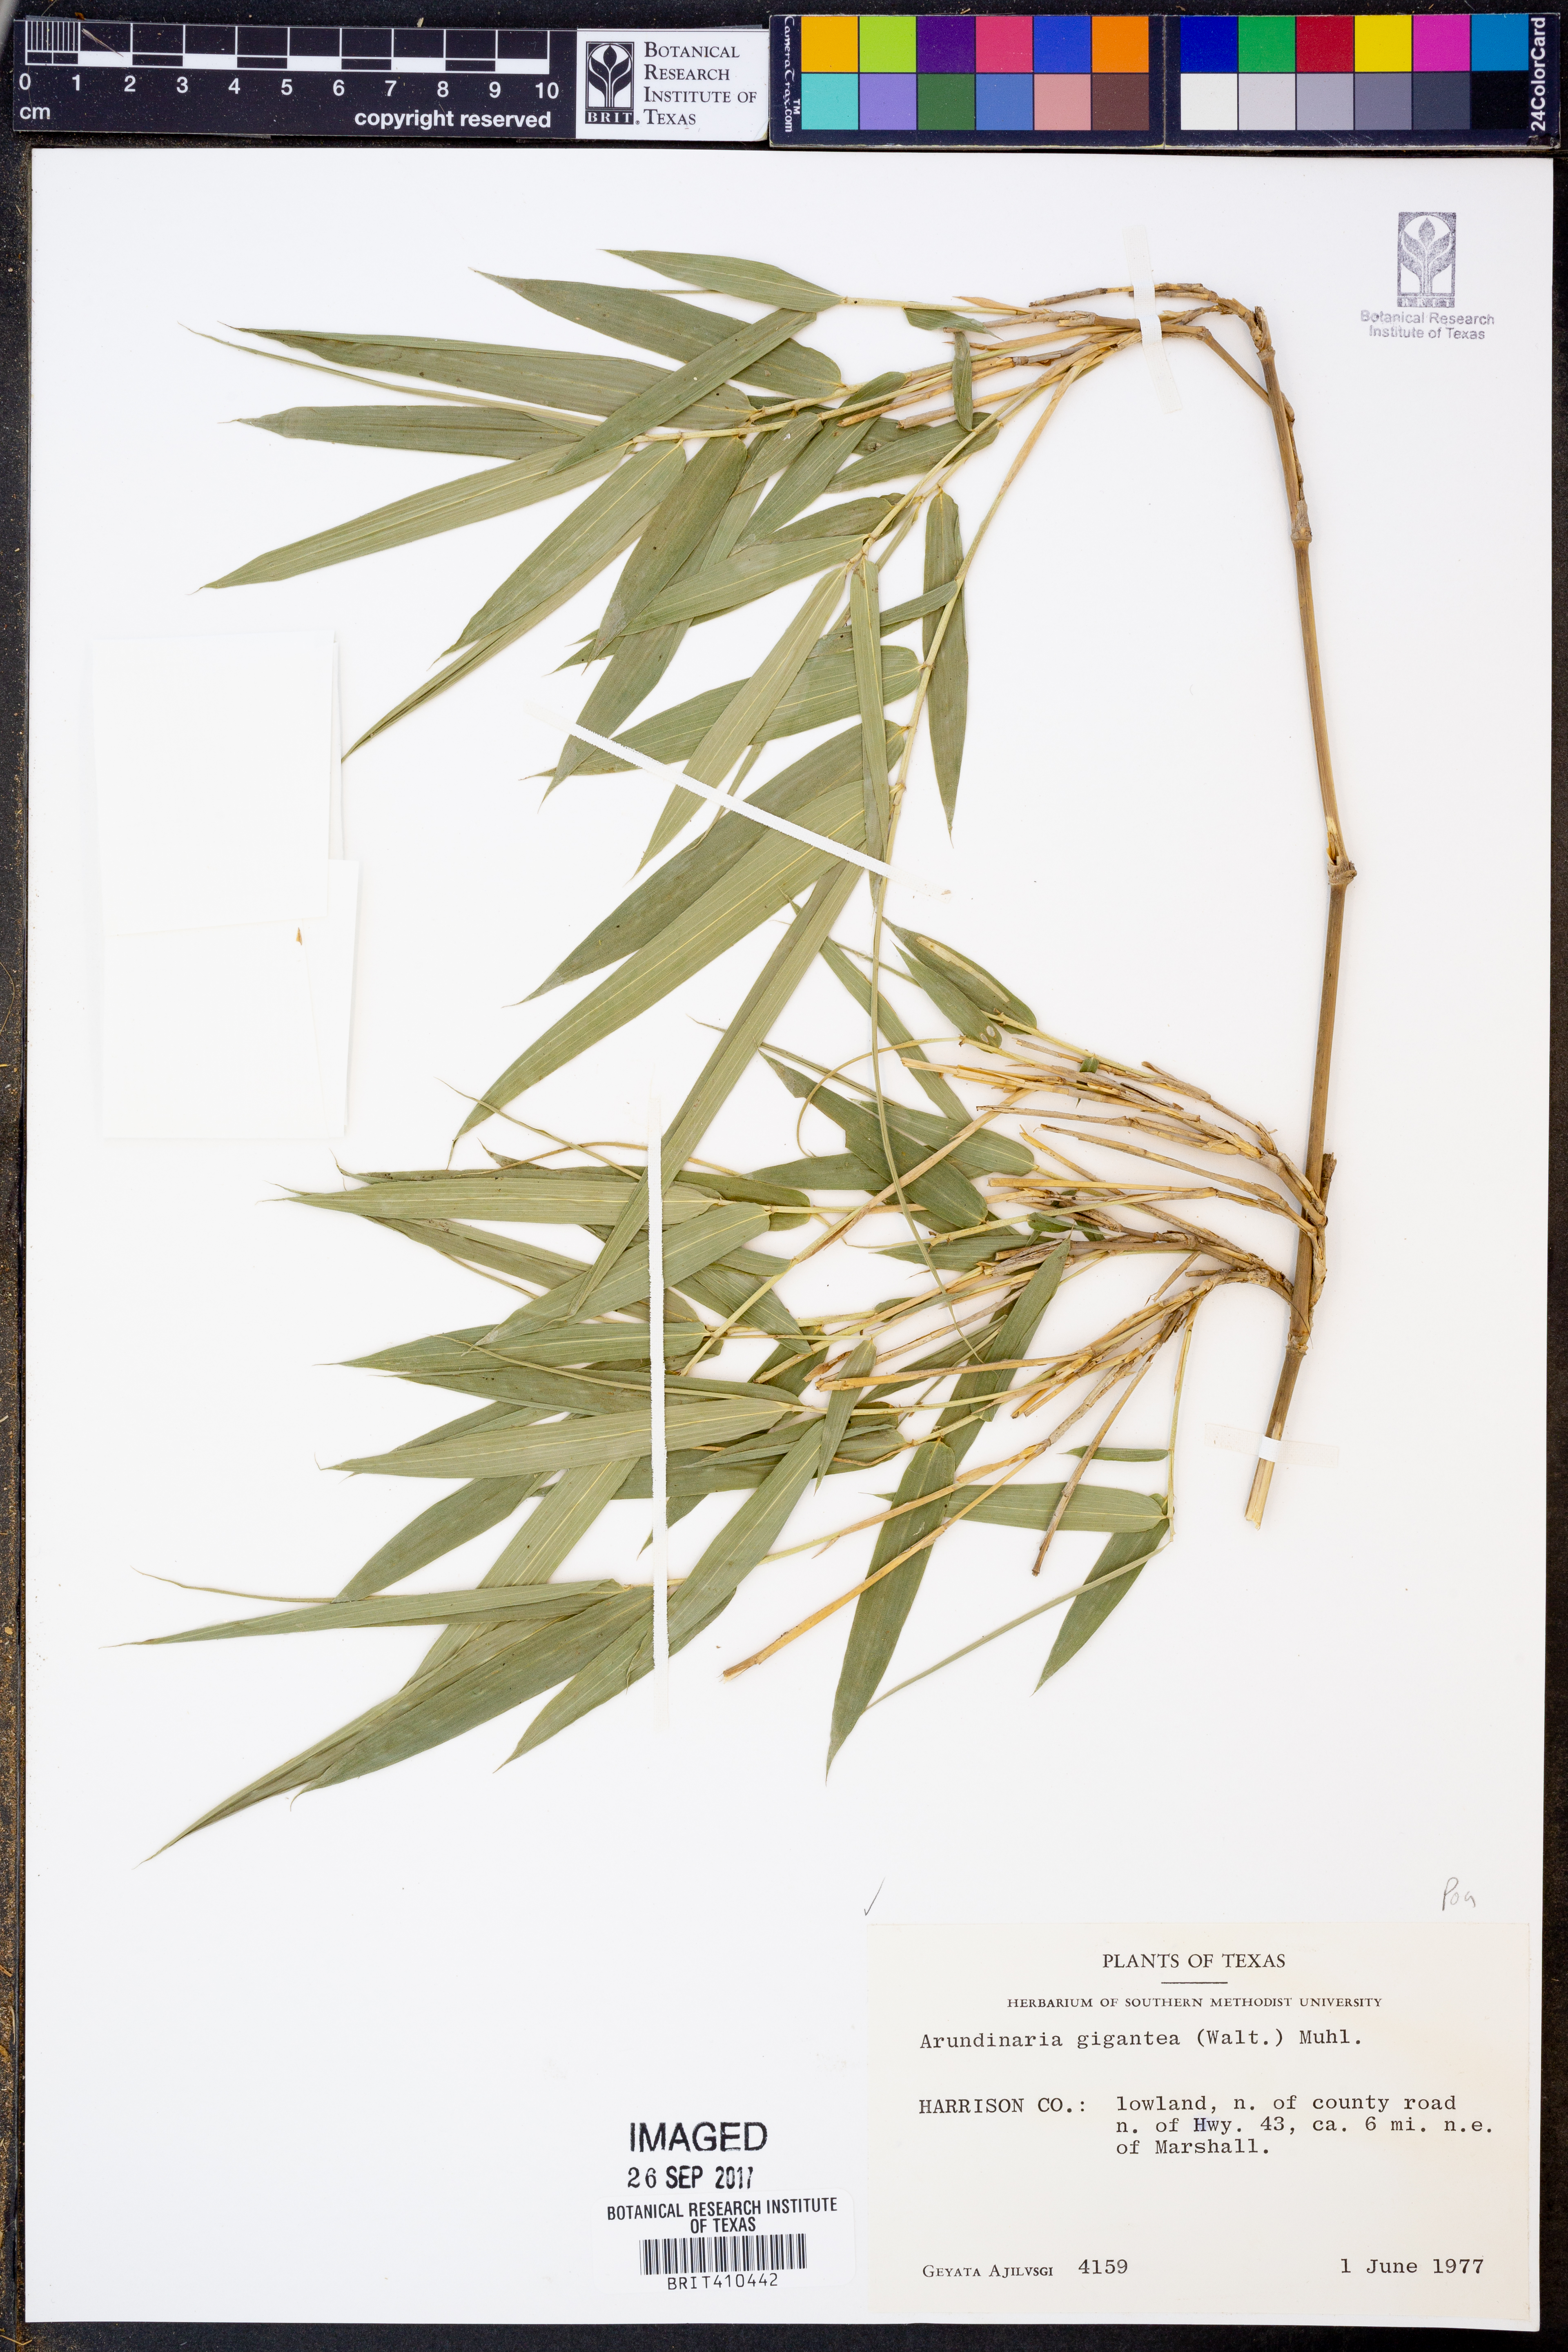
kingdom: Plantae
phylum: Tracheophyta
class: Liliopsida
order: Poales
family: Poaceae
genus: Arundinaria
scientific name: Arundinaria gigantea
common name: Giant cane
